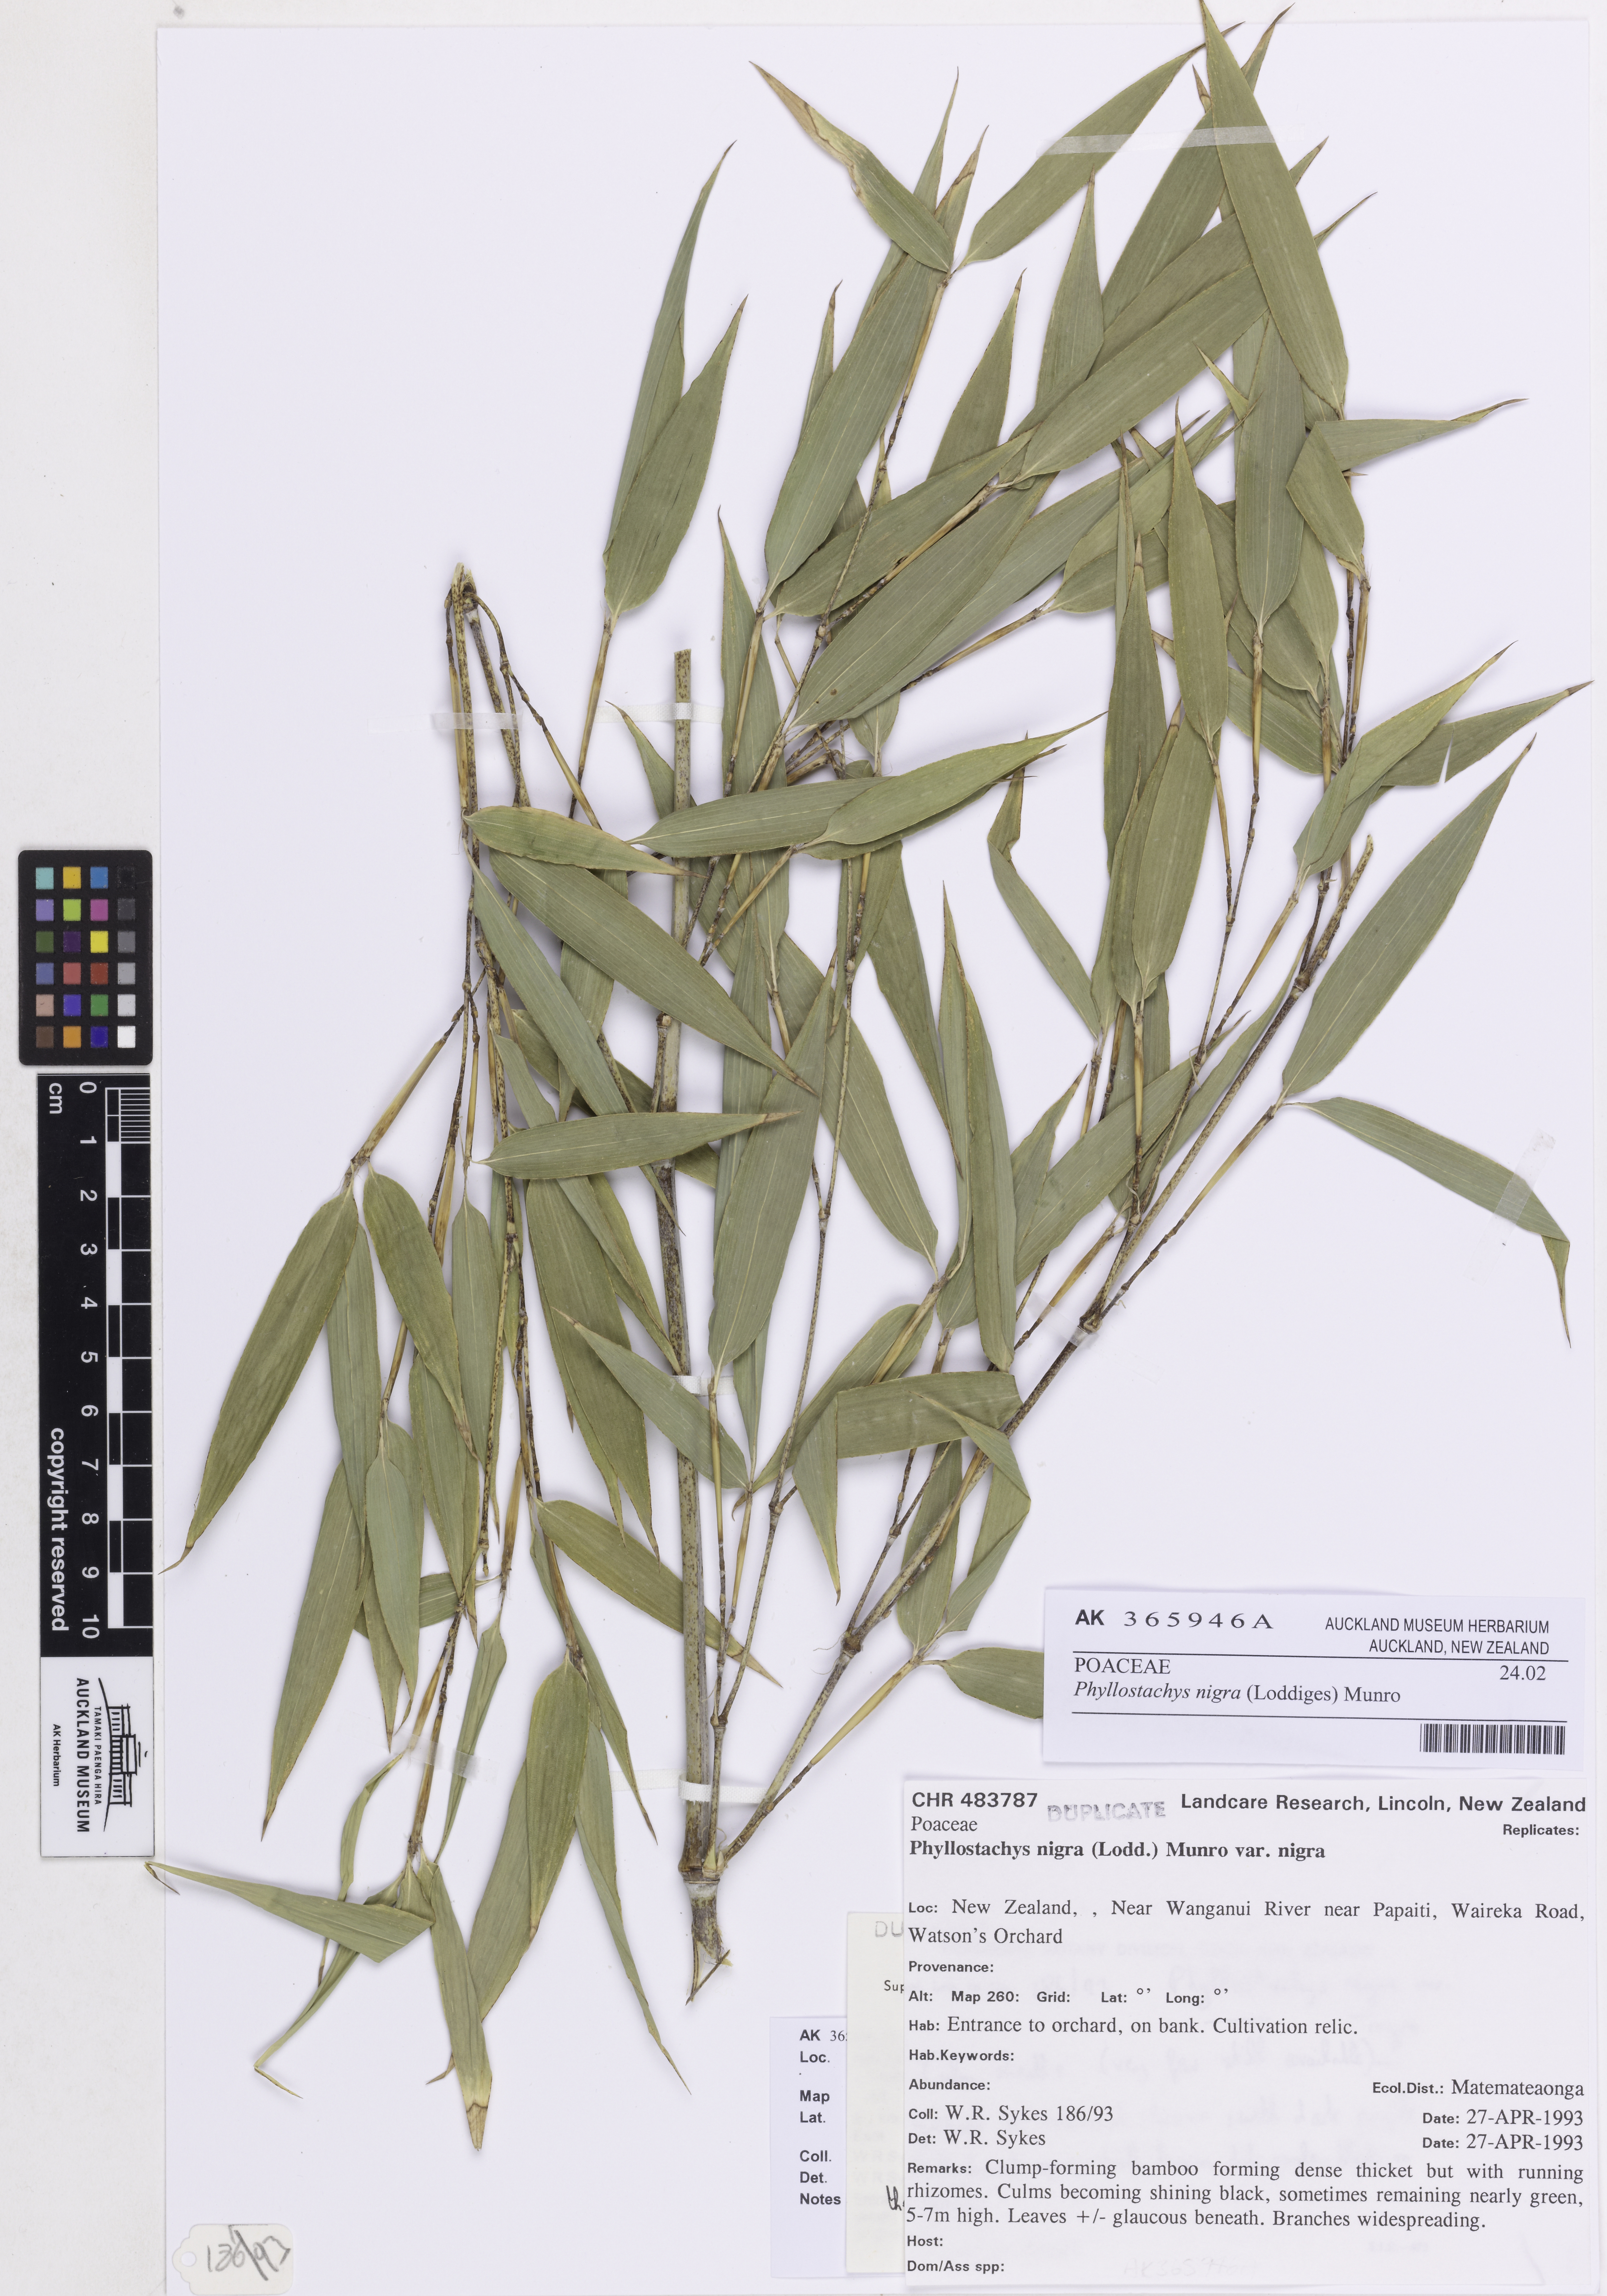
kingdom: Plantae
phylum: Tracheophyta
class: Liliopsida
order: Poales
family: Poaceae
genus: Phyllostachys
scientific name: Phyllostachys nigra
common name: Black bamboo
